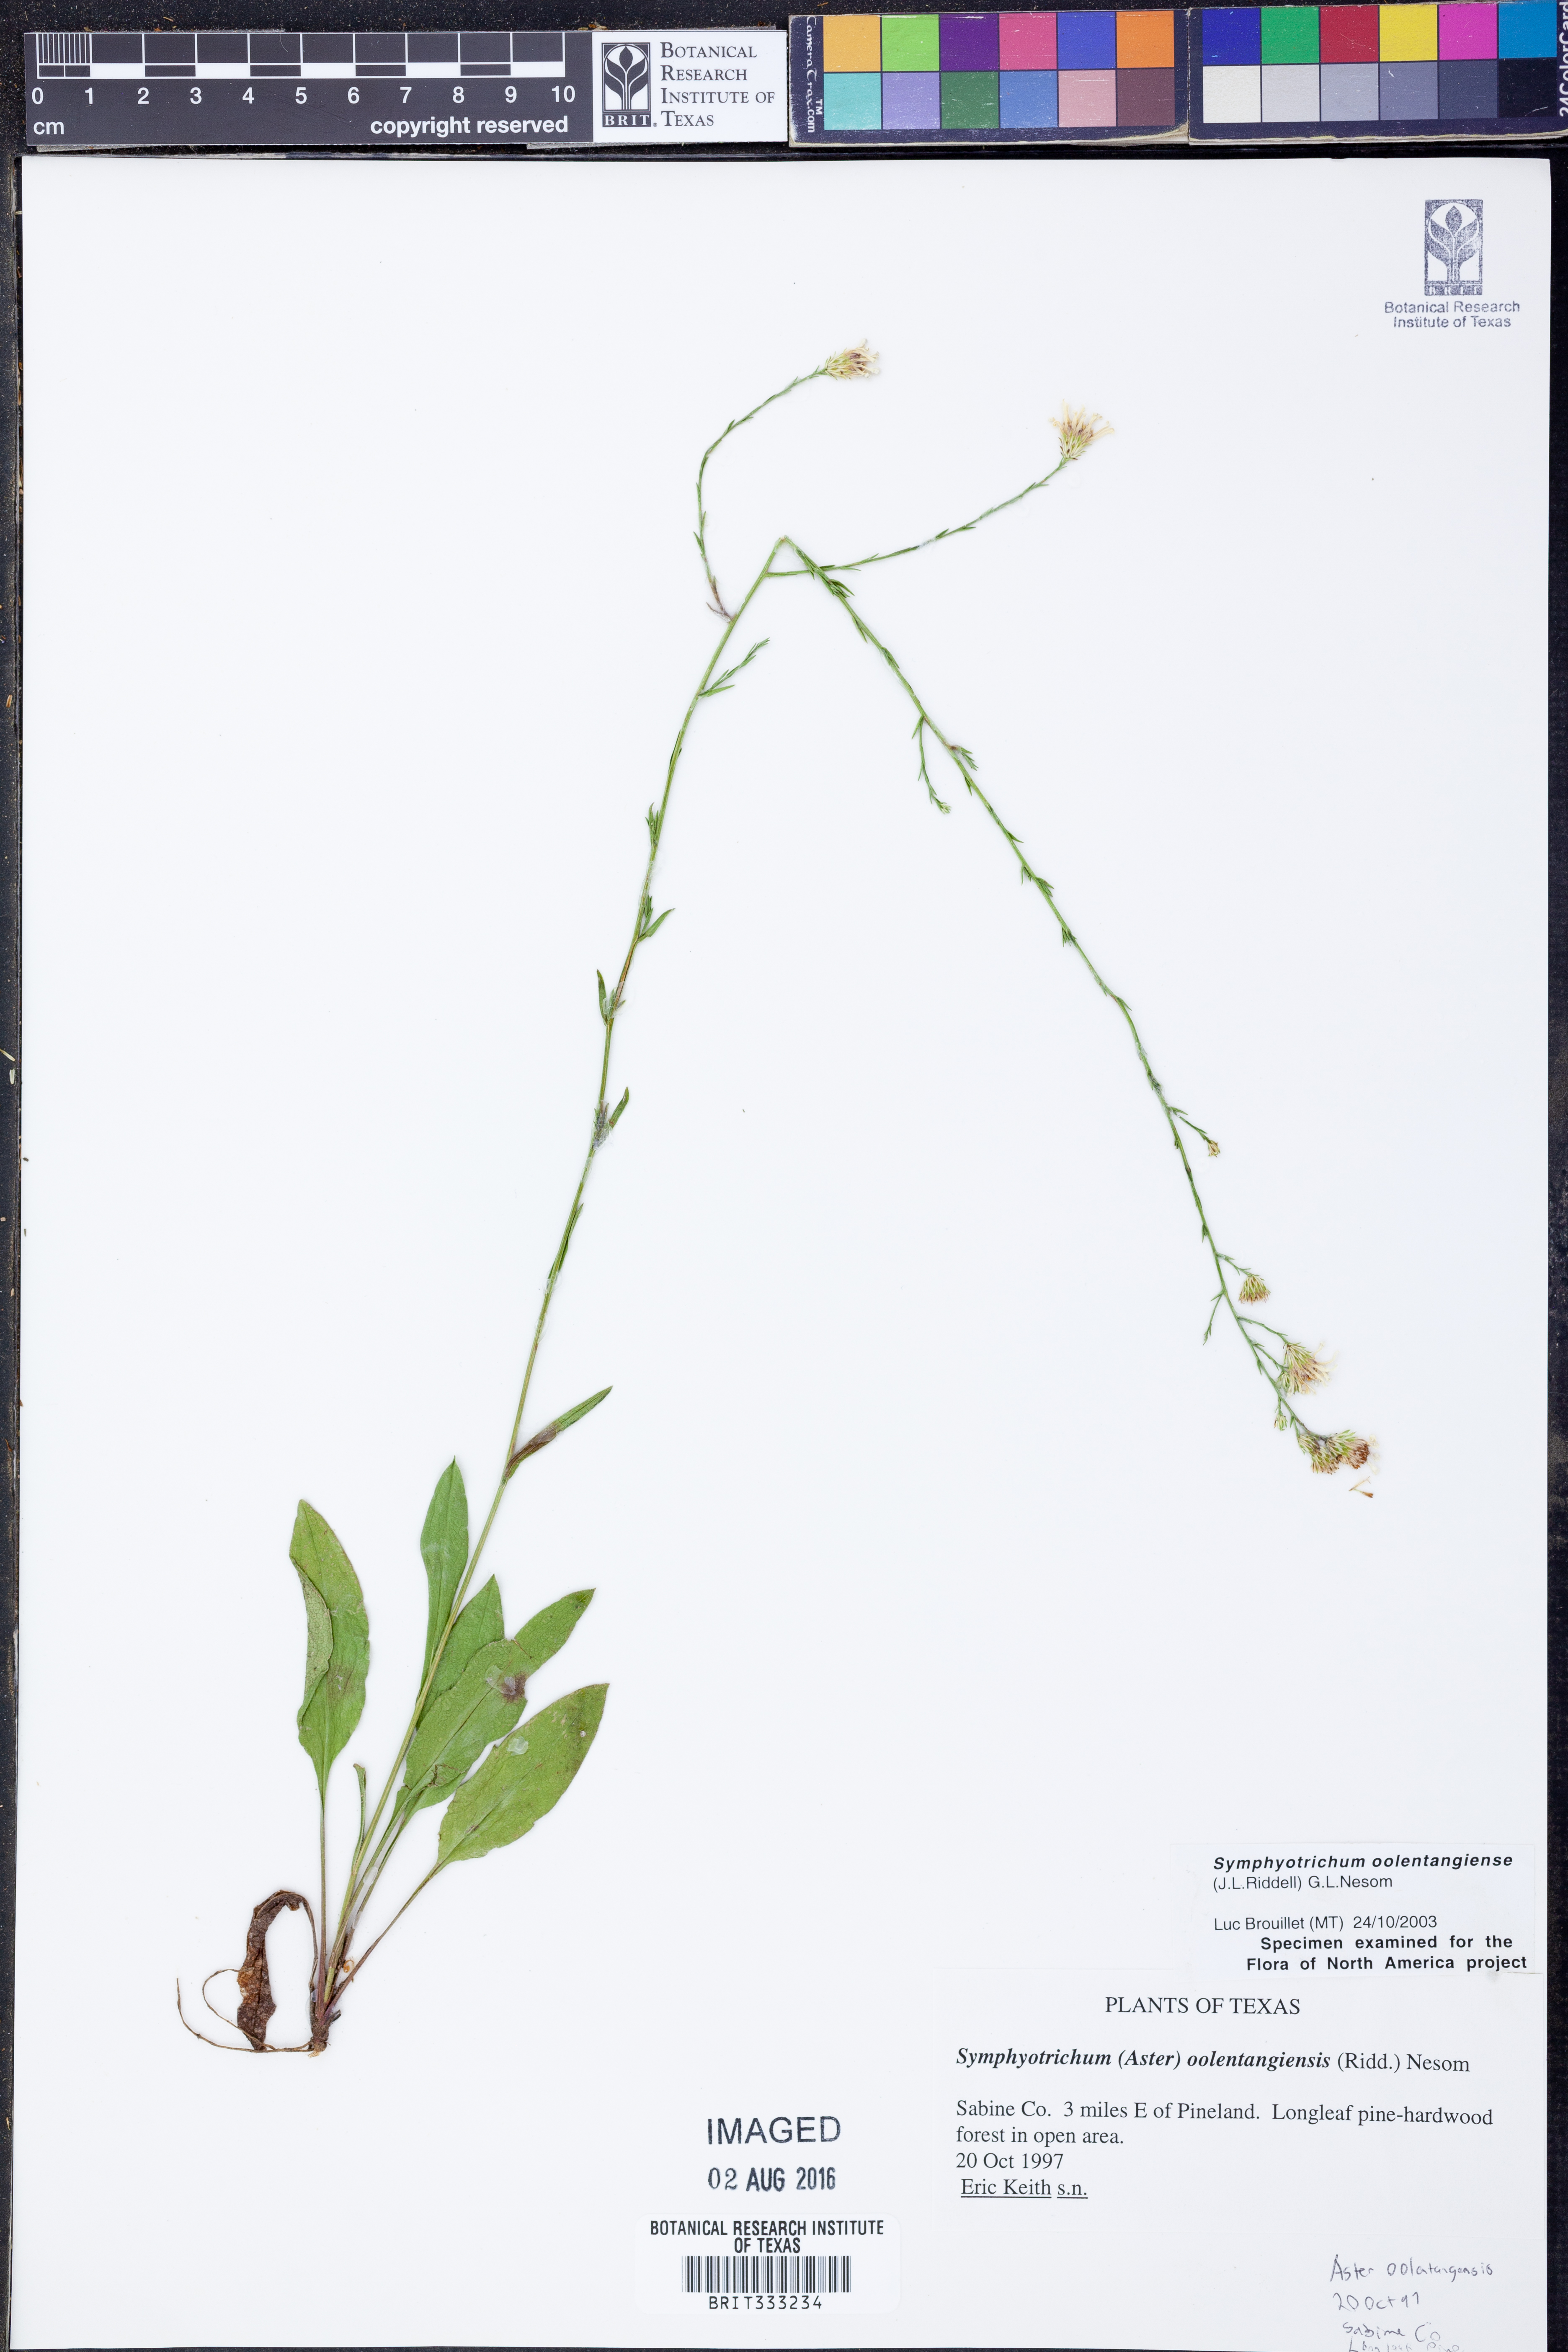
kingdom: Plantae
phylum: Tracheophyta
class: Magnoliopsida
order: Asterales
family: Asteraceae
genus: Symphyotrichum
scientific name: Symphyotrichum oolentangiense
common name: Azure aster
